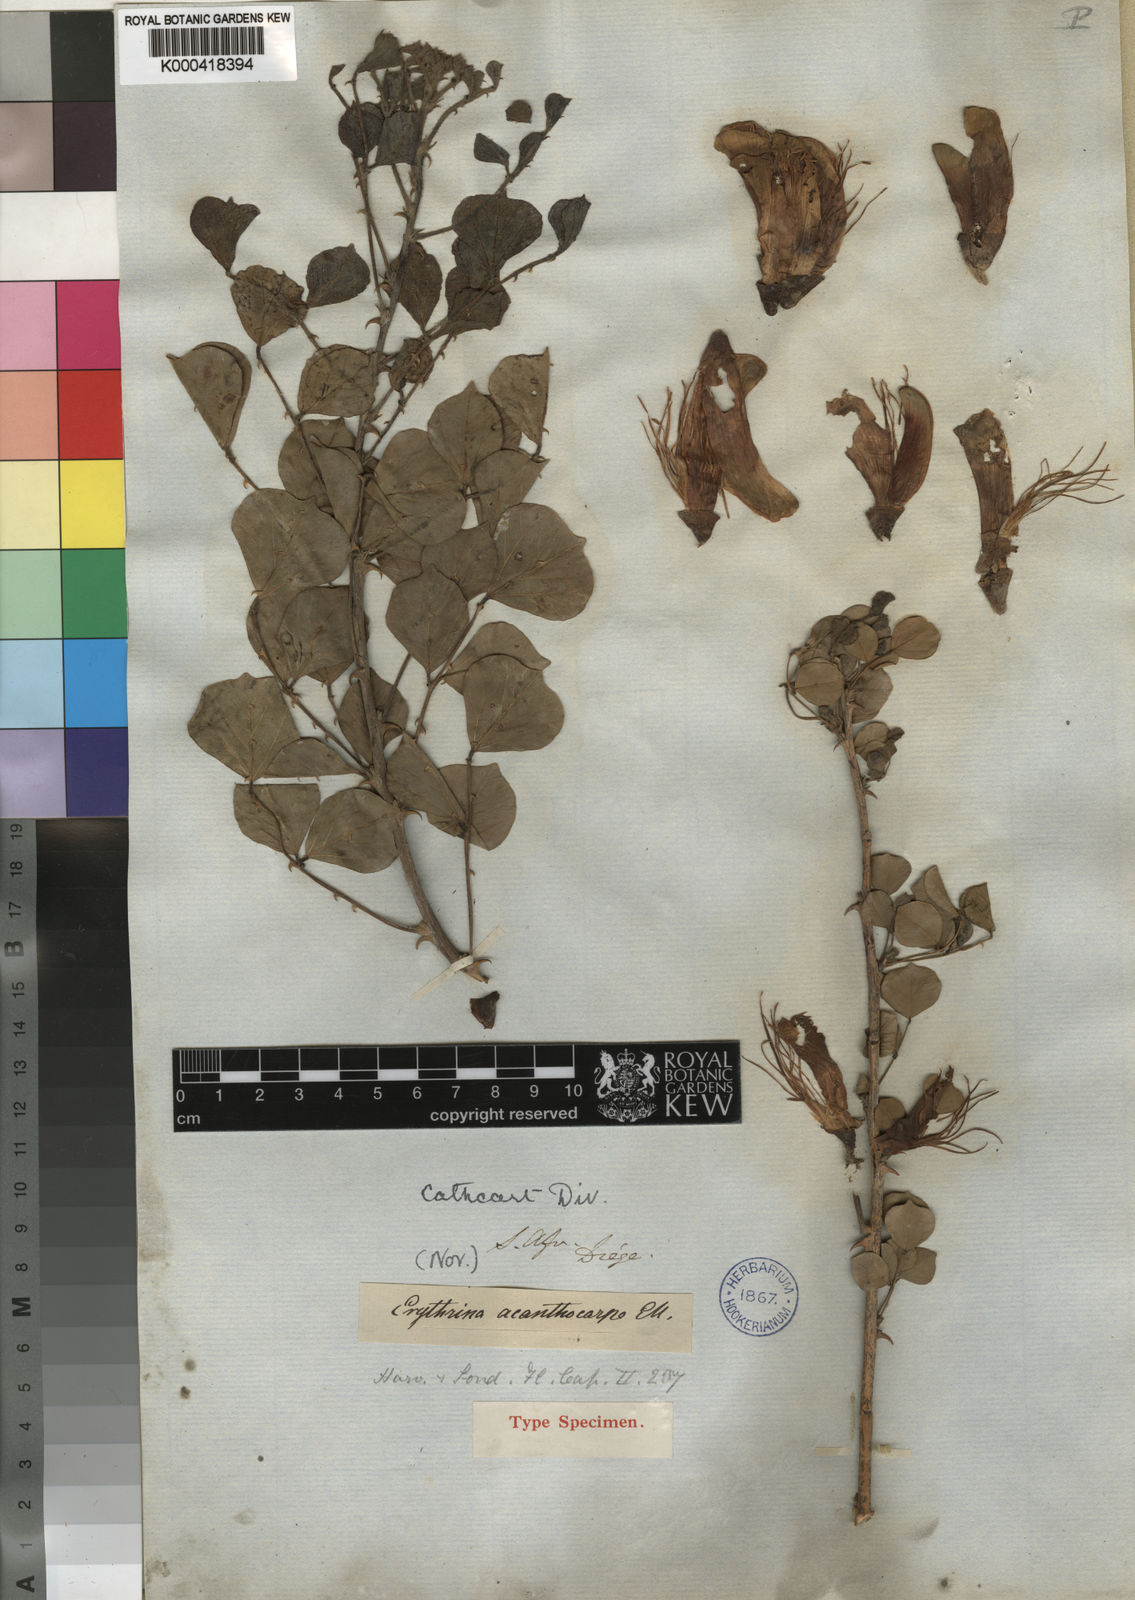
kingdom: Plantae
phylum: Tracheophyta
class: Magnoliopsida
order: Fabales
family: Fabaceae
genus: Erythrina
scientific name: Erythrina acanthocarpa
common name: Thorny coraltree
